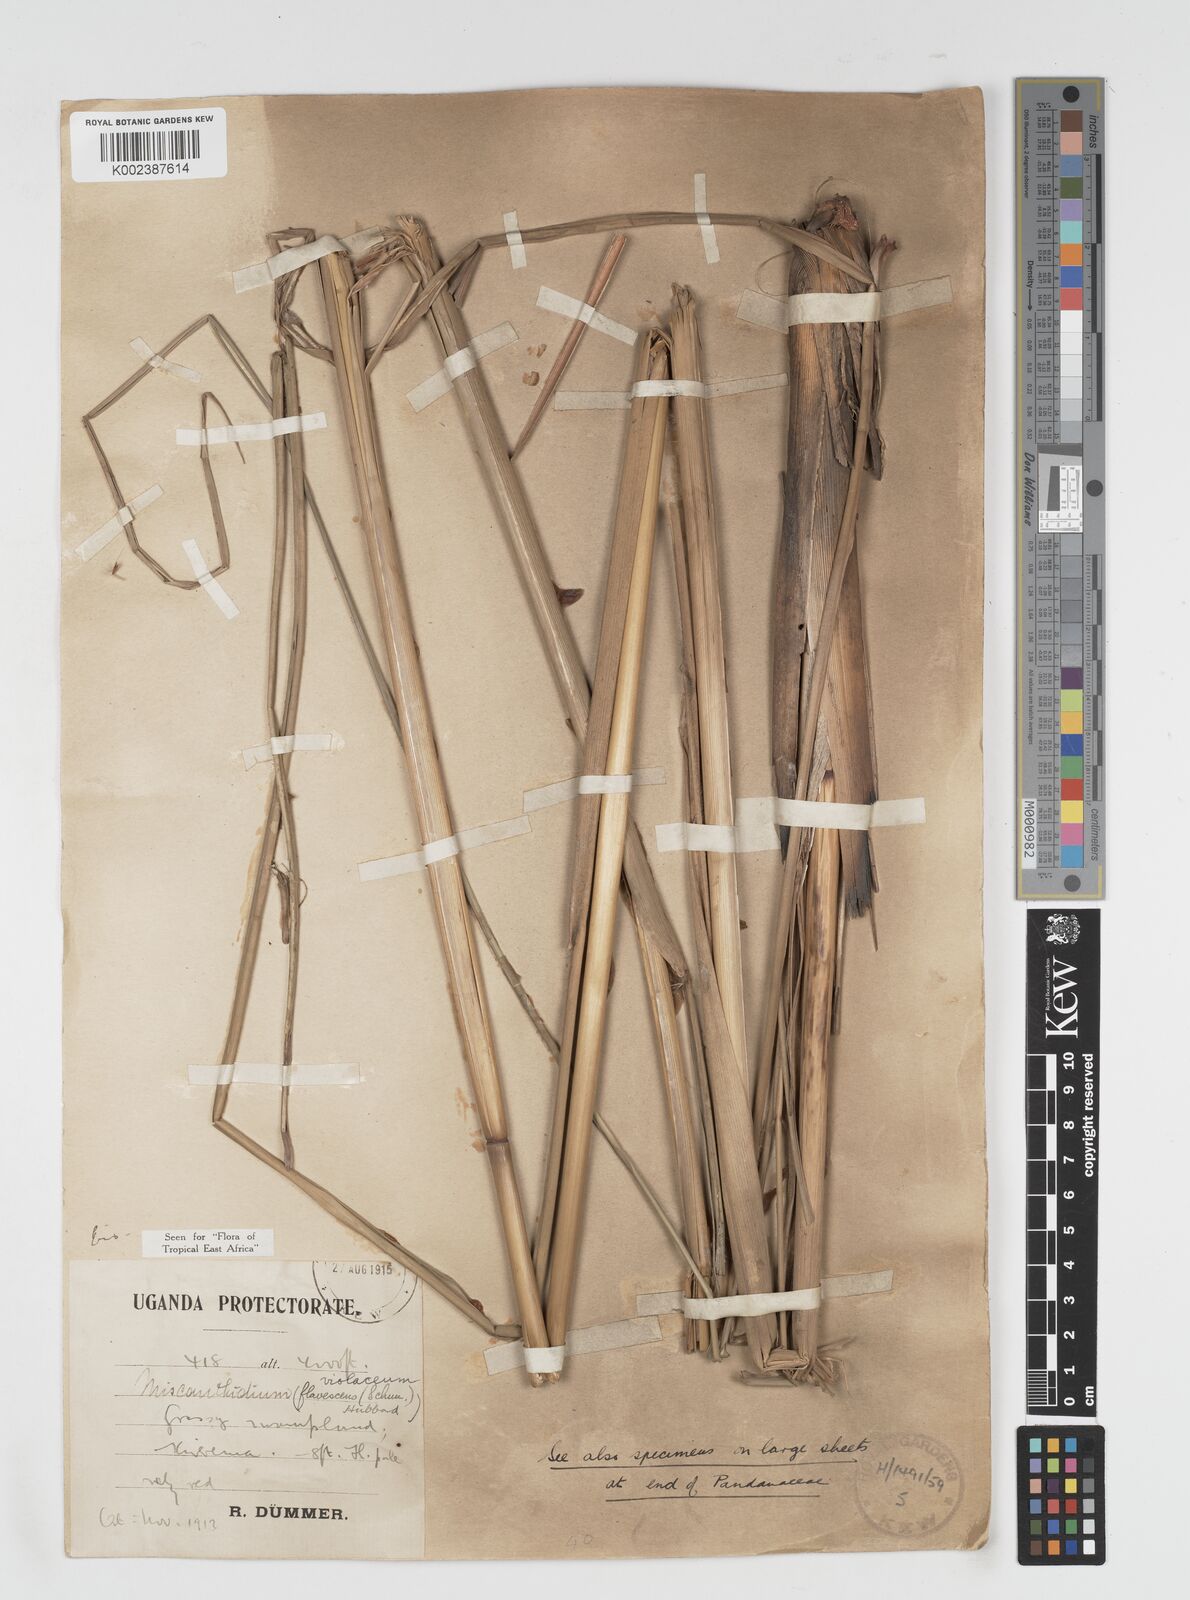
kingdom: Plantae
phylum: Tracheophyta
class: Liliopsida
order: Poales
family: Poaceae
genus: Miscanthidium
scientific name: Miscanthidium violaceum
